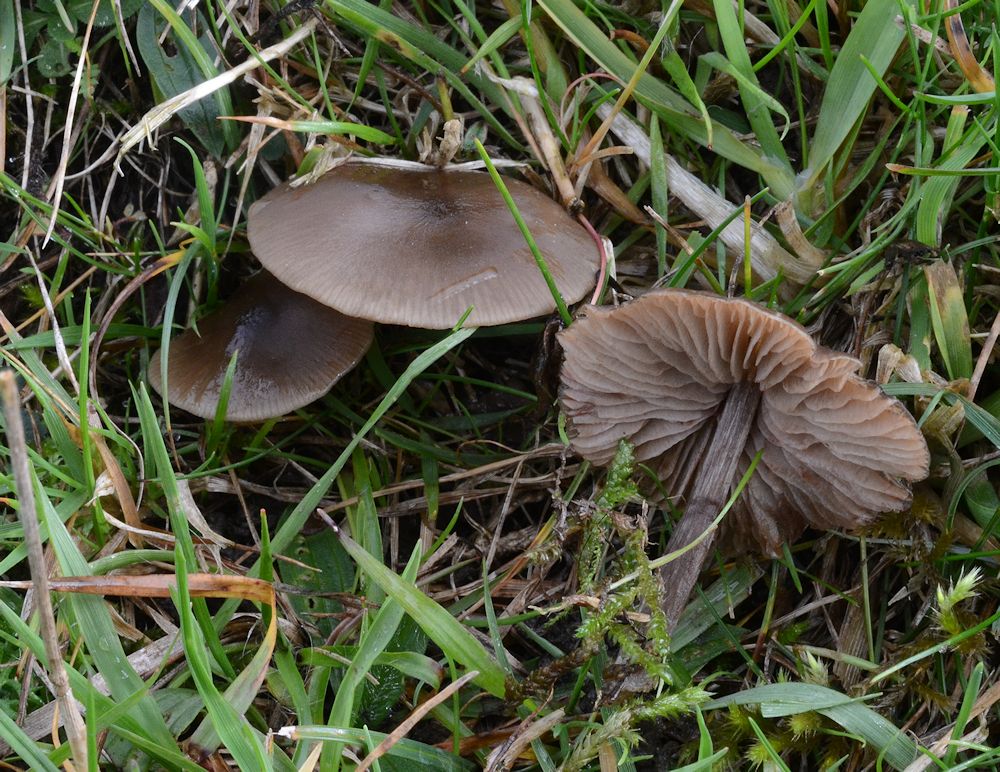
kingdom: Fungi
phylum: Basidiomycota
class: Agaricomycetes
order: Agaricales
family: Entolomataceae
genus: Entoloma
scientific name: Entoloma sericeum
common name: silkeglinsende rødblad
